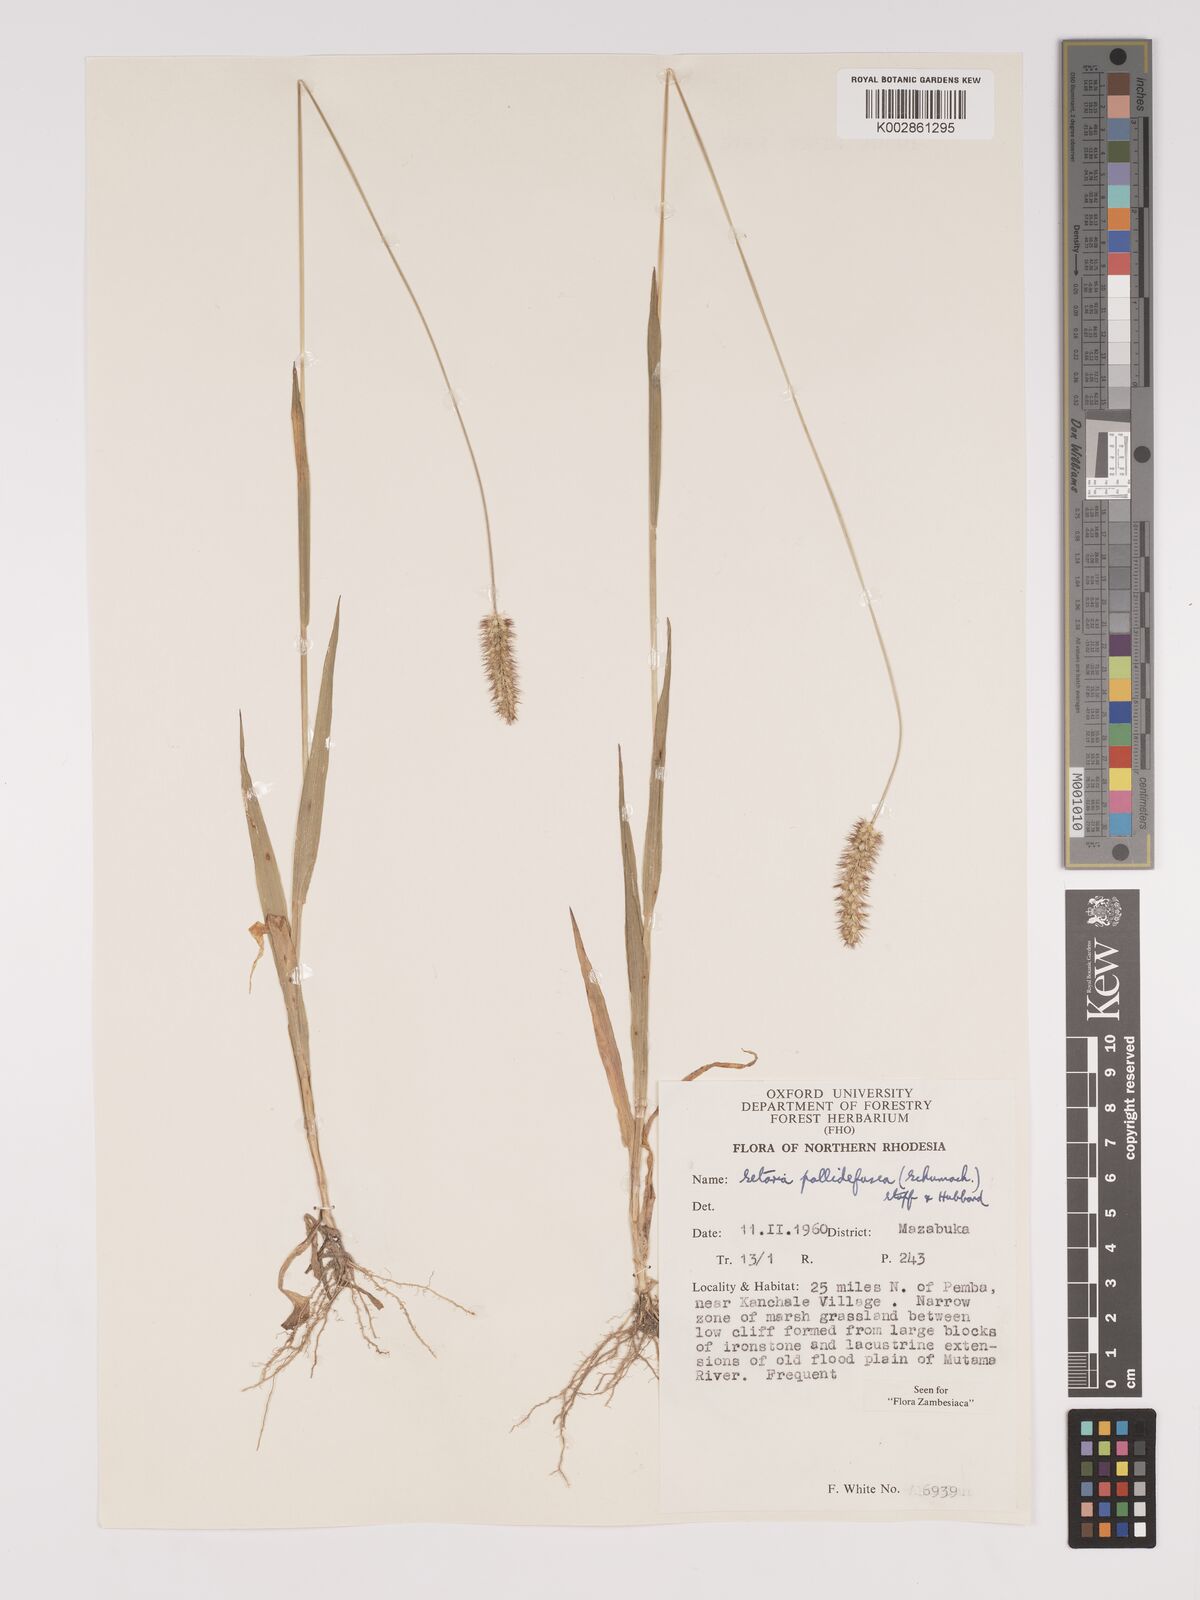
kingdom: Plantae
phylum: Tracheophyta
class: Liliopsida
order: Poales
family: Poaceae
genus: Setaria
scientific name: Setaria pumila
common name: Yellow bristle-grass
